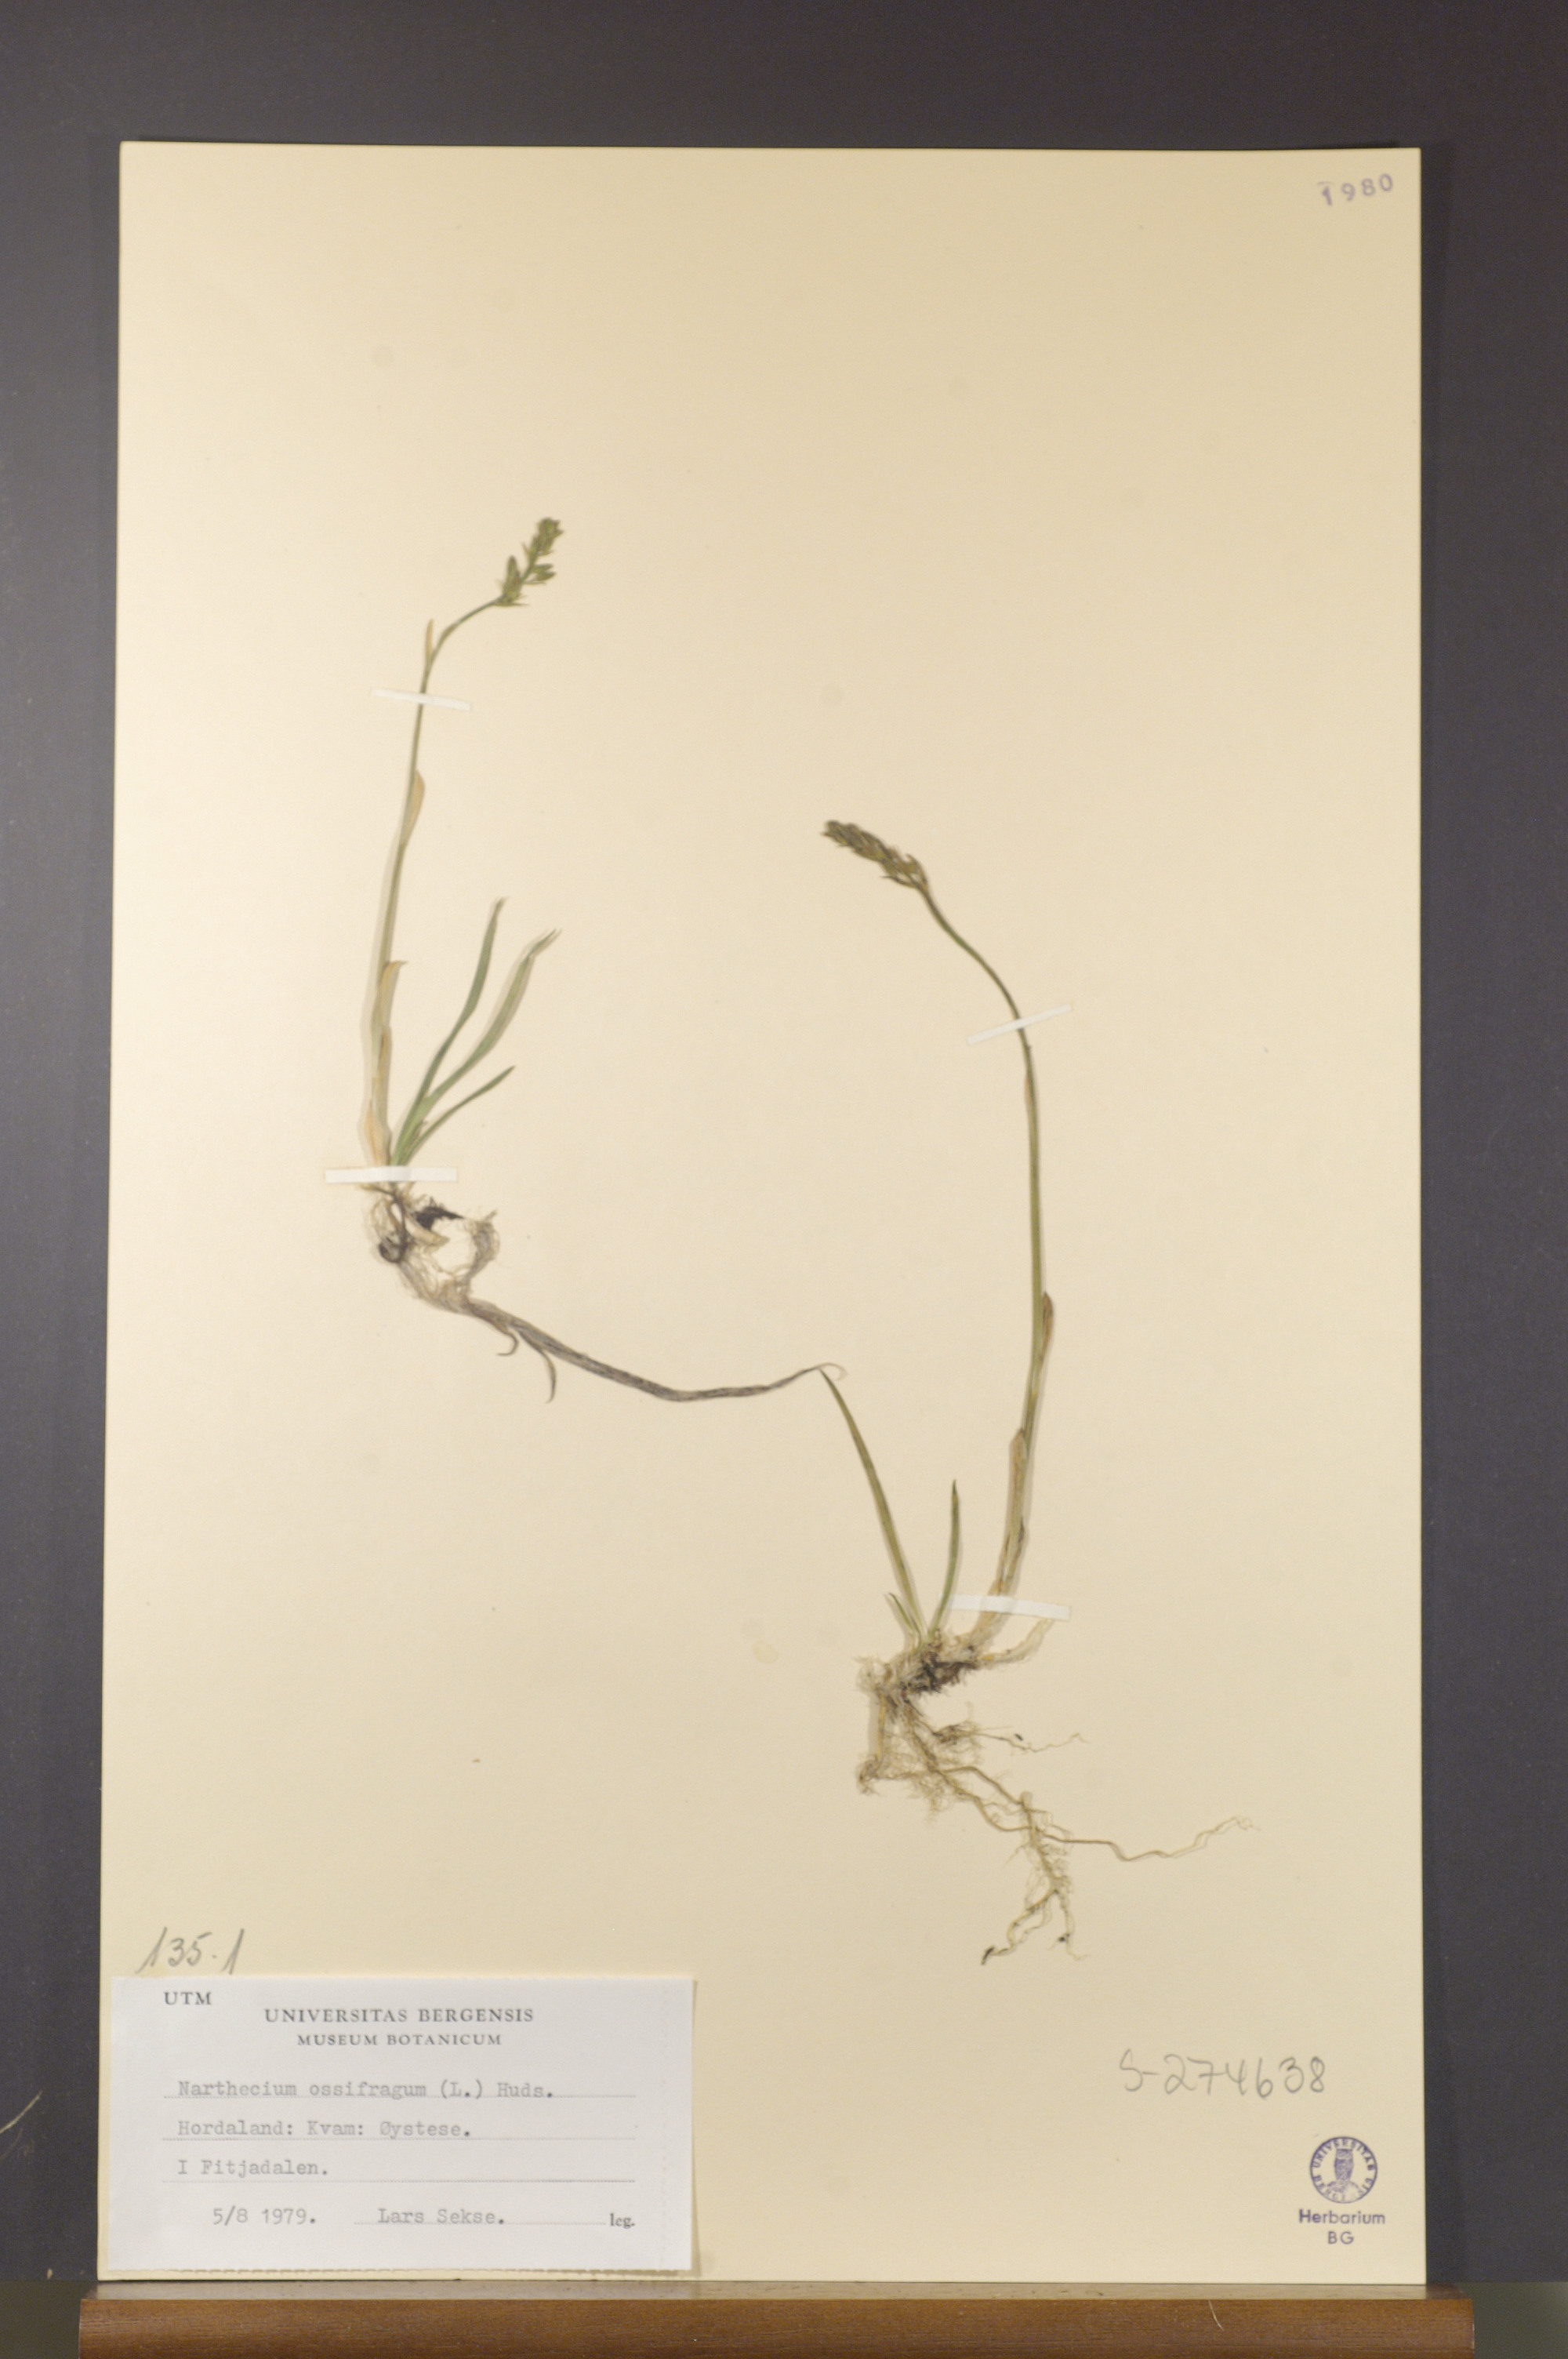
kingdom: Plantae
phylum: Tracheophyta
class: Liliopsida
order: Dioscoreales
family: Nartheciaceae
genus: Narthecium
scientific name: Narthecium ossifragum
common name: Bog asphodel
